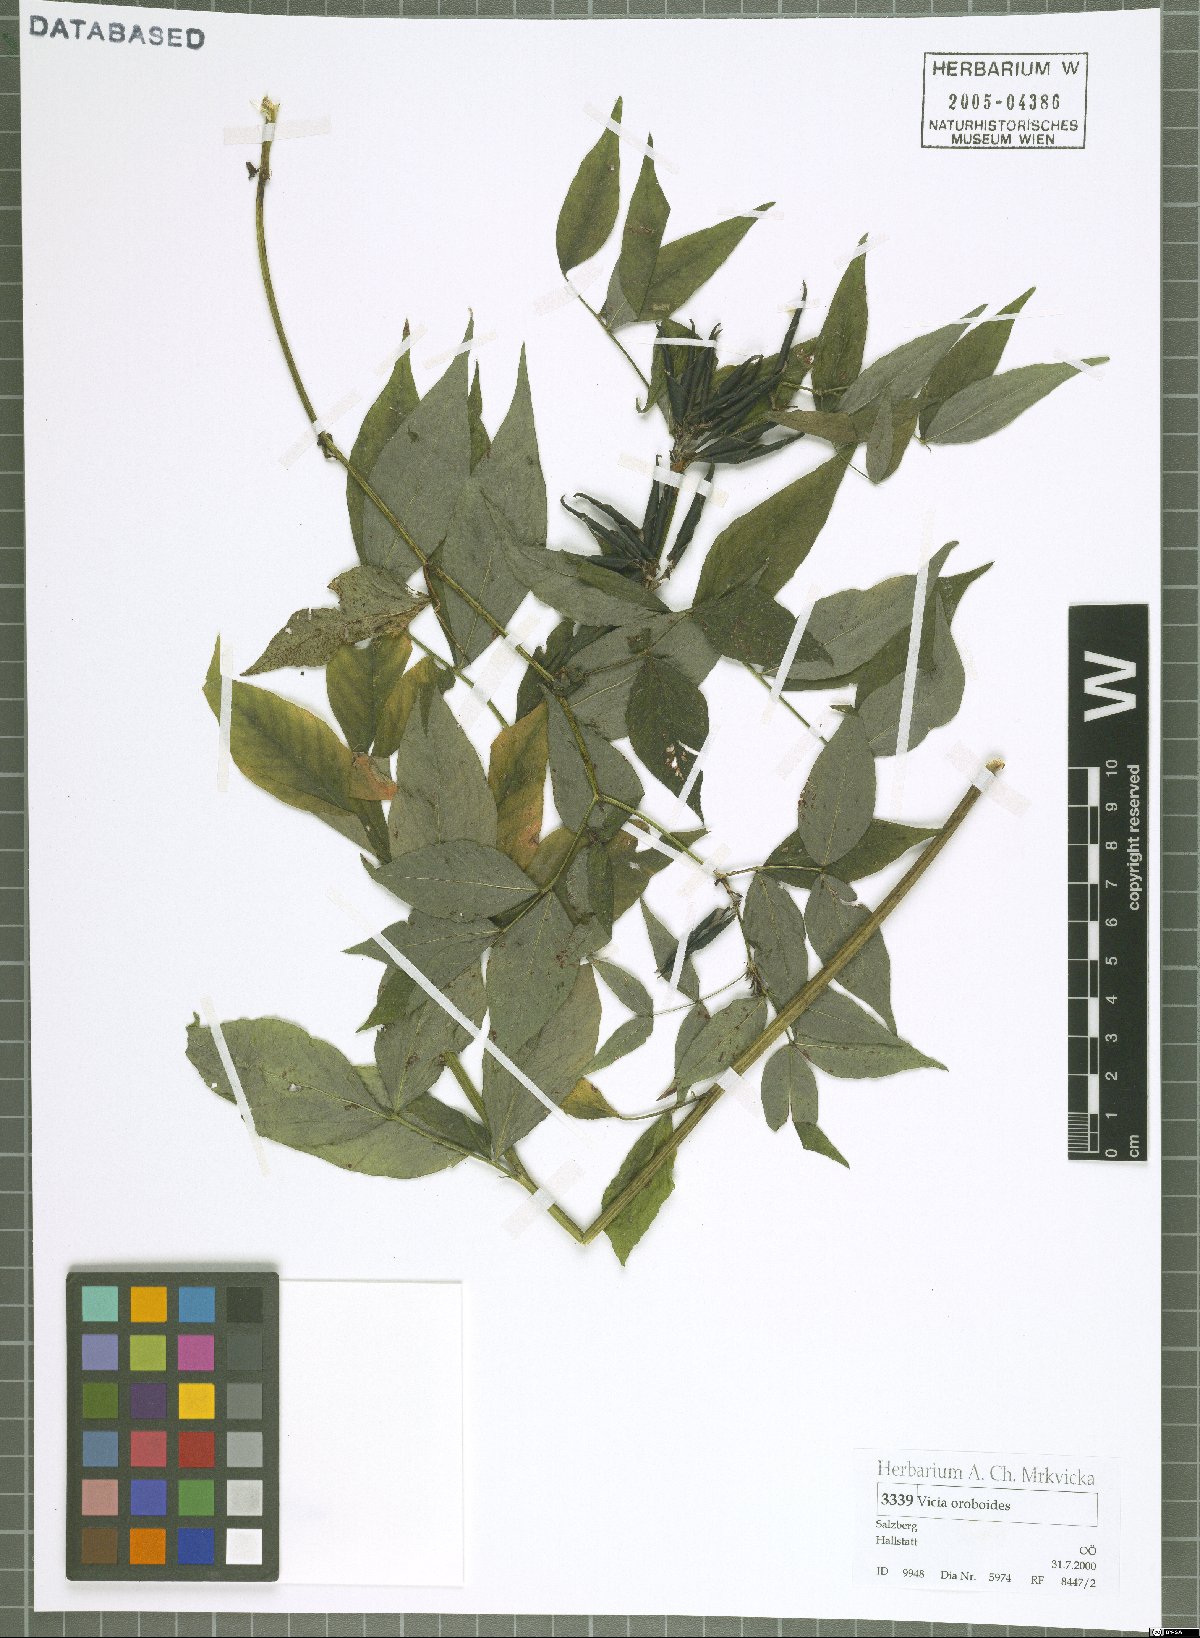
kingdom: Plantae
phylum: Tracheophyta
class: Magnoliopsida
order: Fabales
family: Fabaceae
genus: Vicia
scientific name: Vicia oroboides
